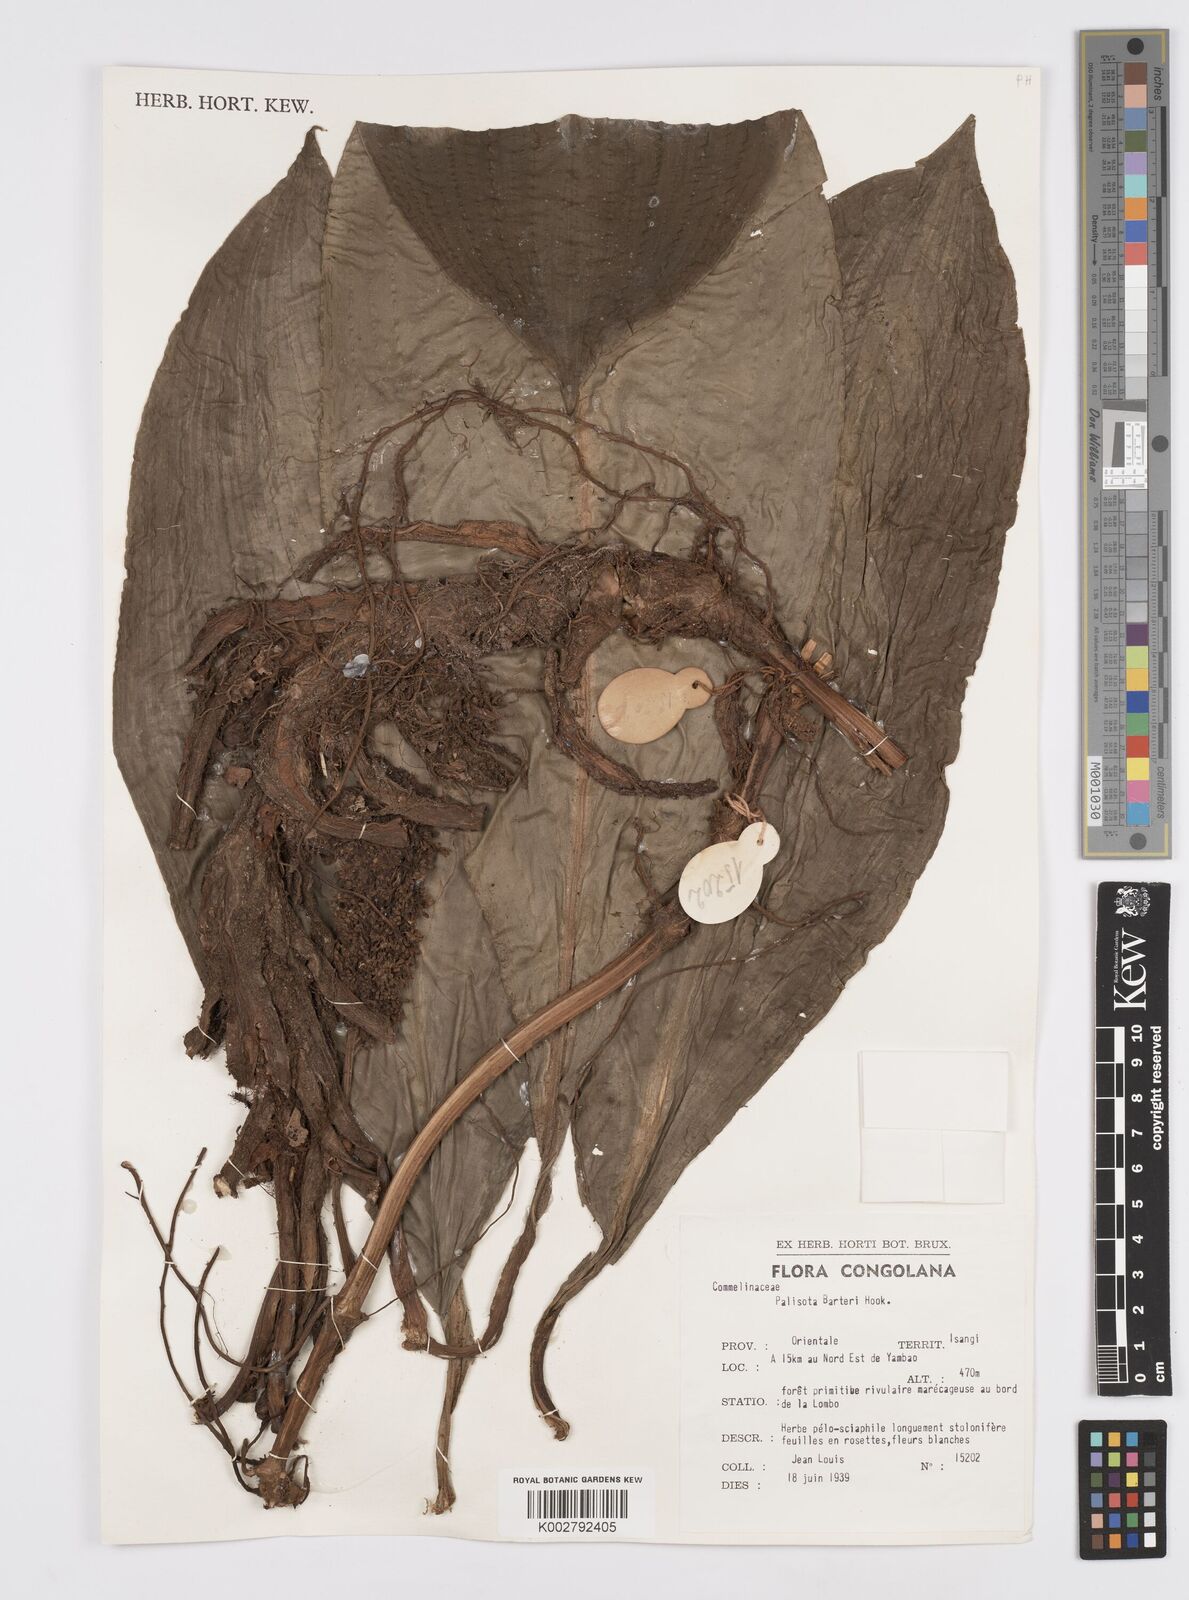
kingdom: Plantae
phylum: Tracheophyta
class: Liliopsida
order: Commelinales
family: Commelinaceae
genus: Palisota
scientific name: Palisota barteri
